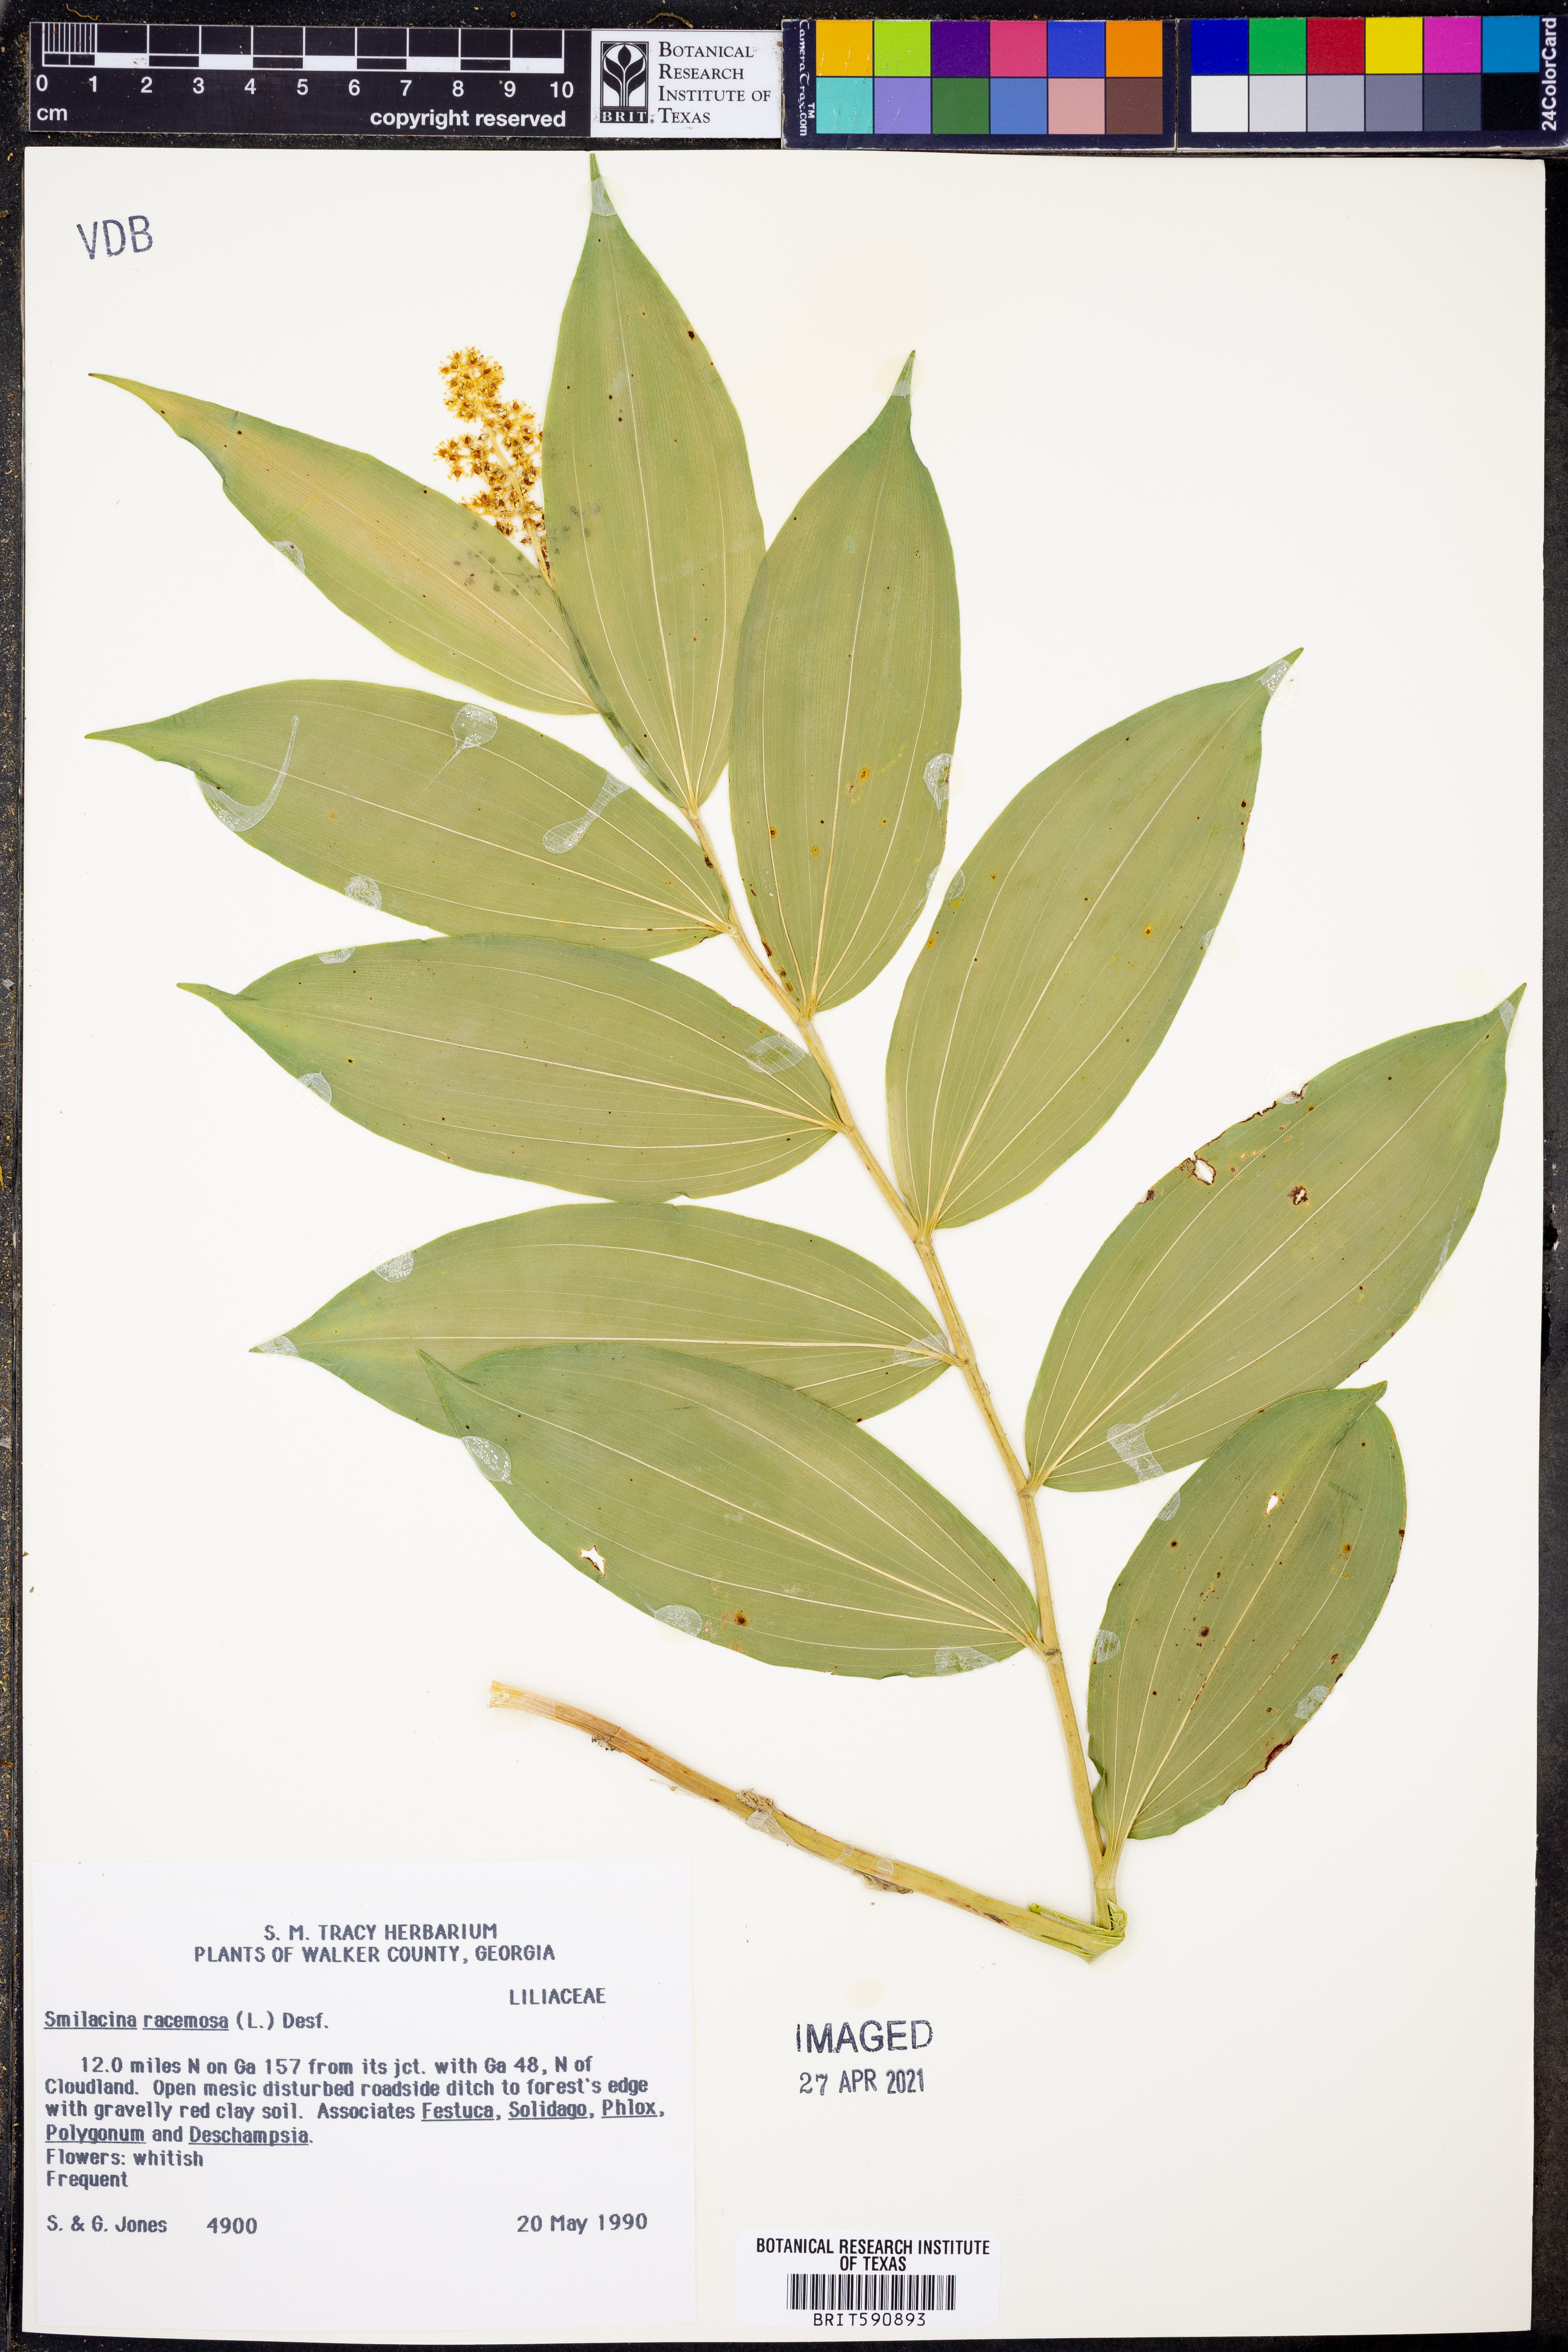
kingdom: Plantae
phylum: Tracheophyta
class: Liliopsida
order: Asparagales
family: Asparagaceae
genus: Maianthemum
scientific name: Maianthemum racemosum
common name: False spikenard
